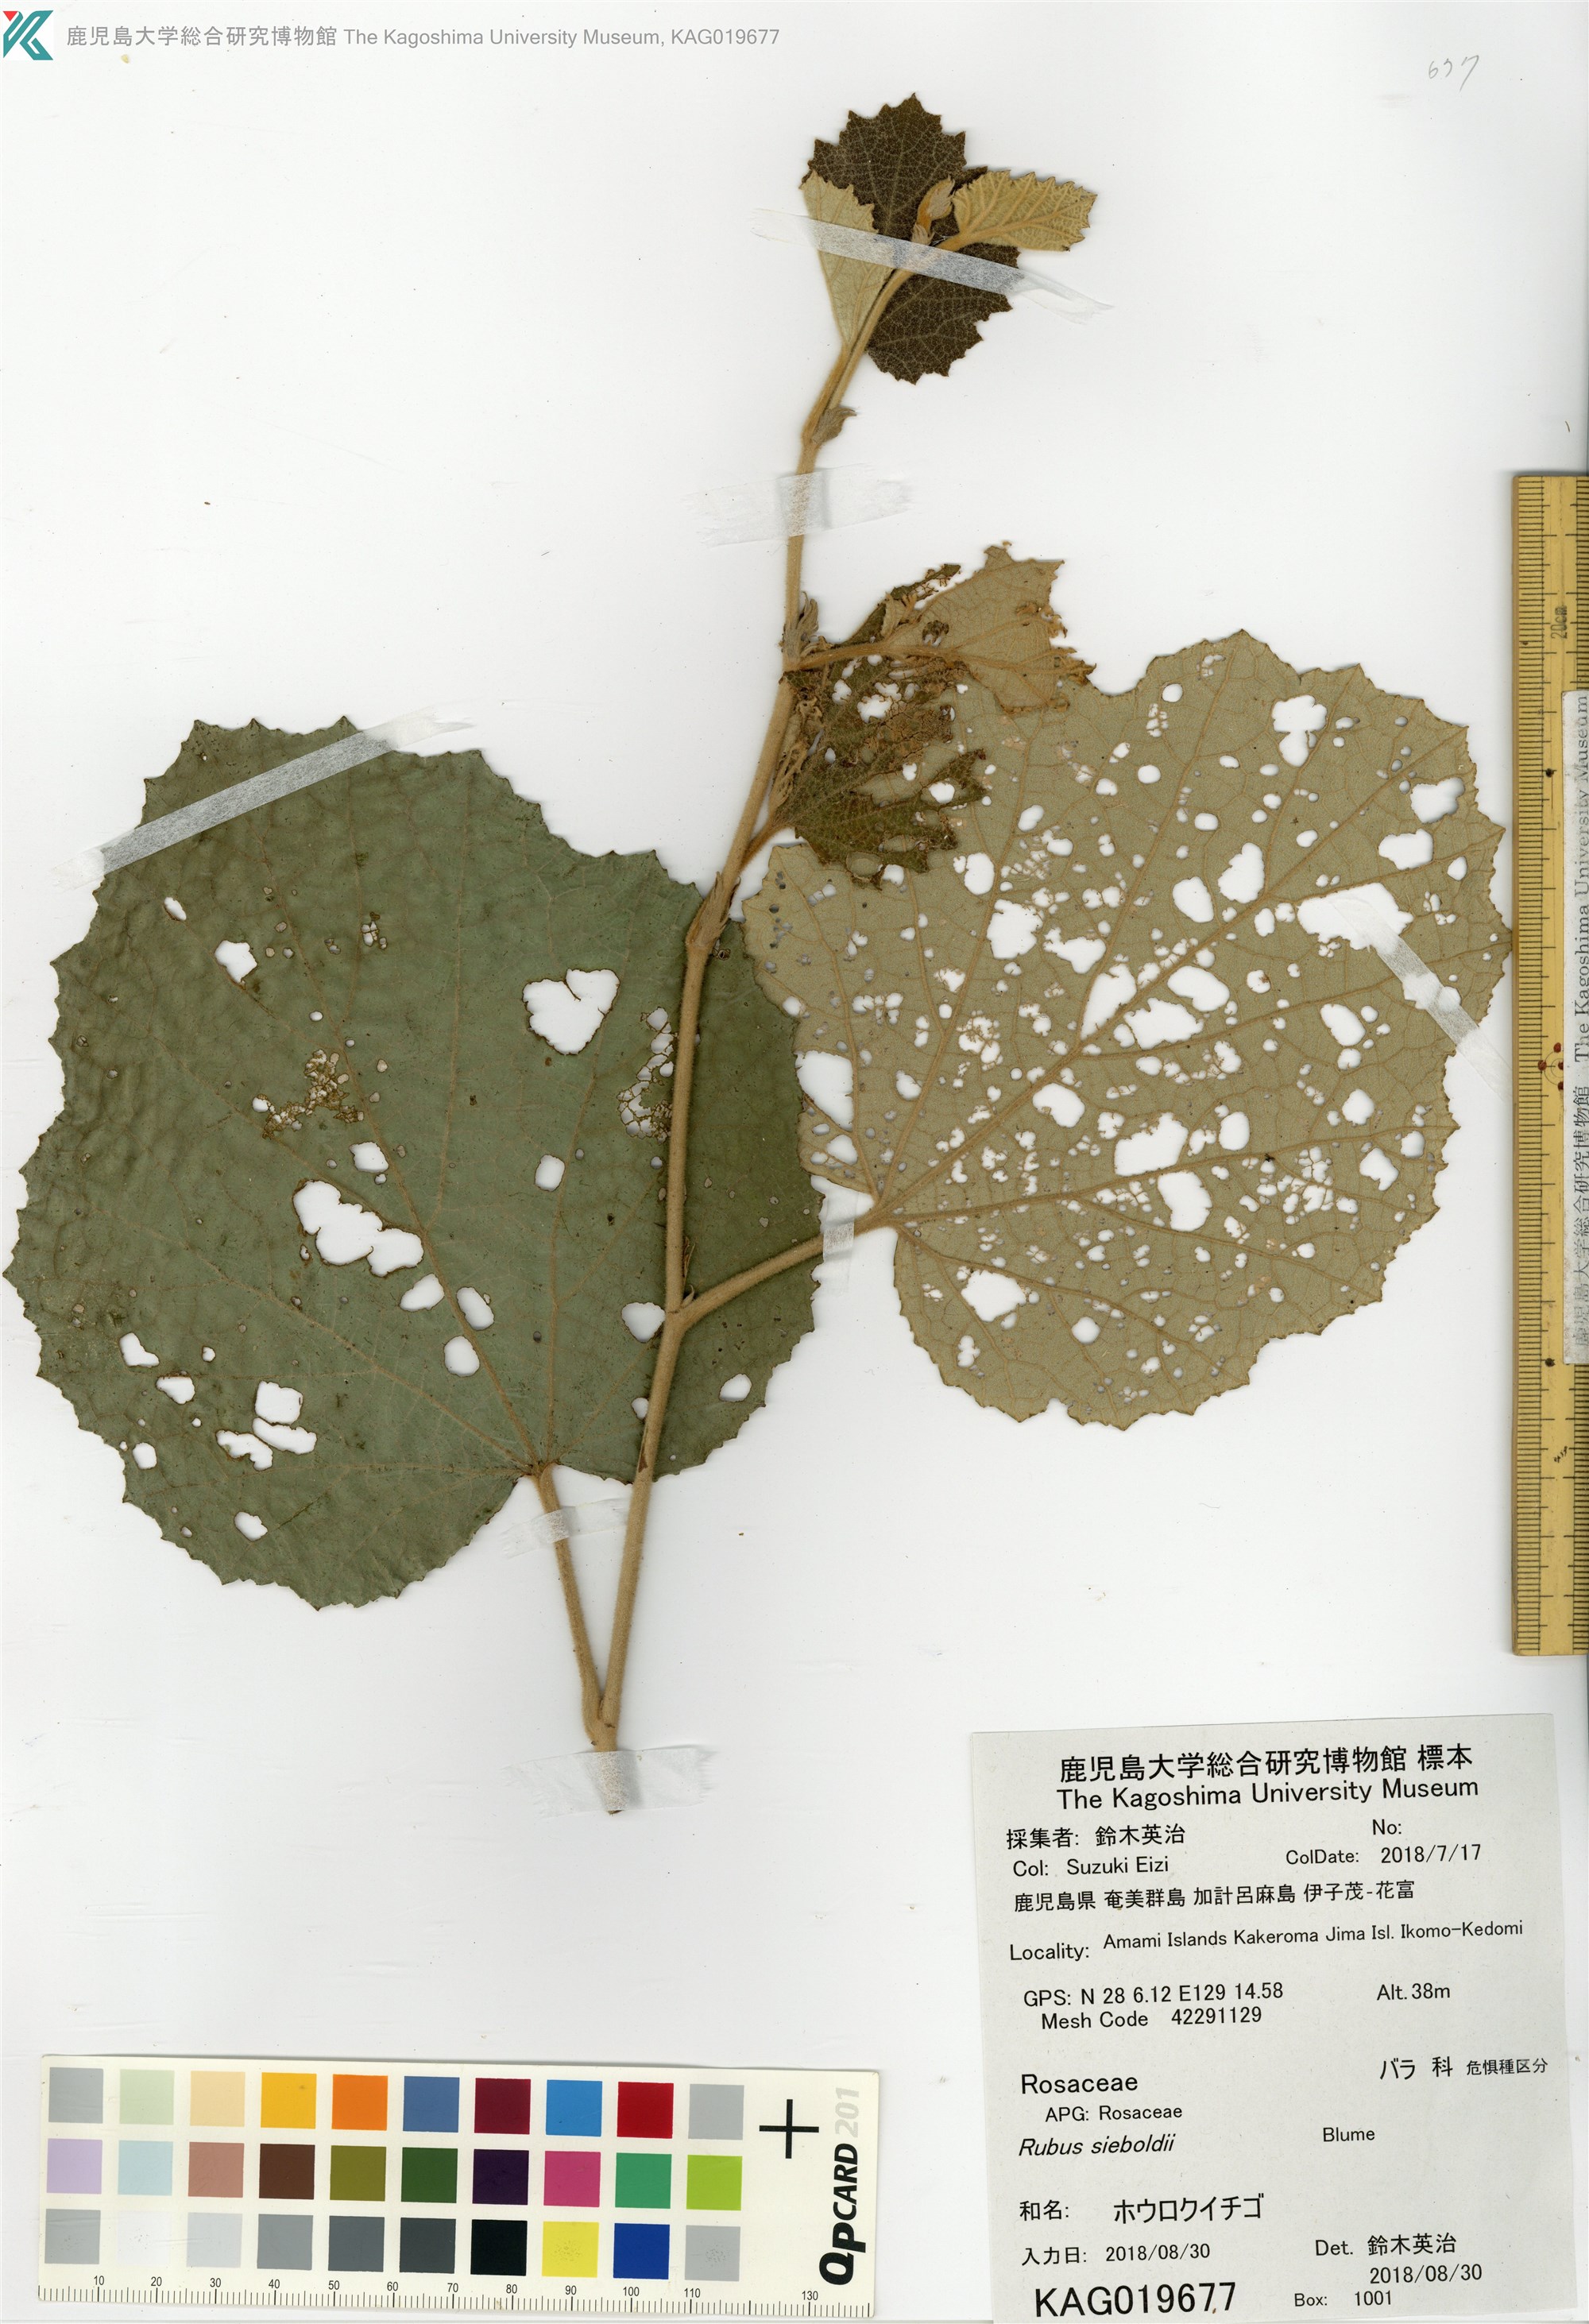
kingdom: Plantae
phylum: Tracheophyta
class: Magnoliopsida
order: Rosales
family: Rosaceae
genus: Rubus
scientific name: Rubus sieboldii
